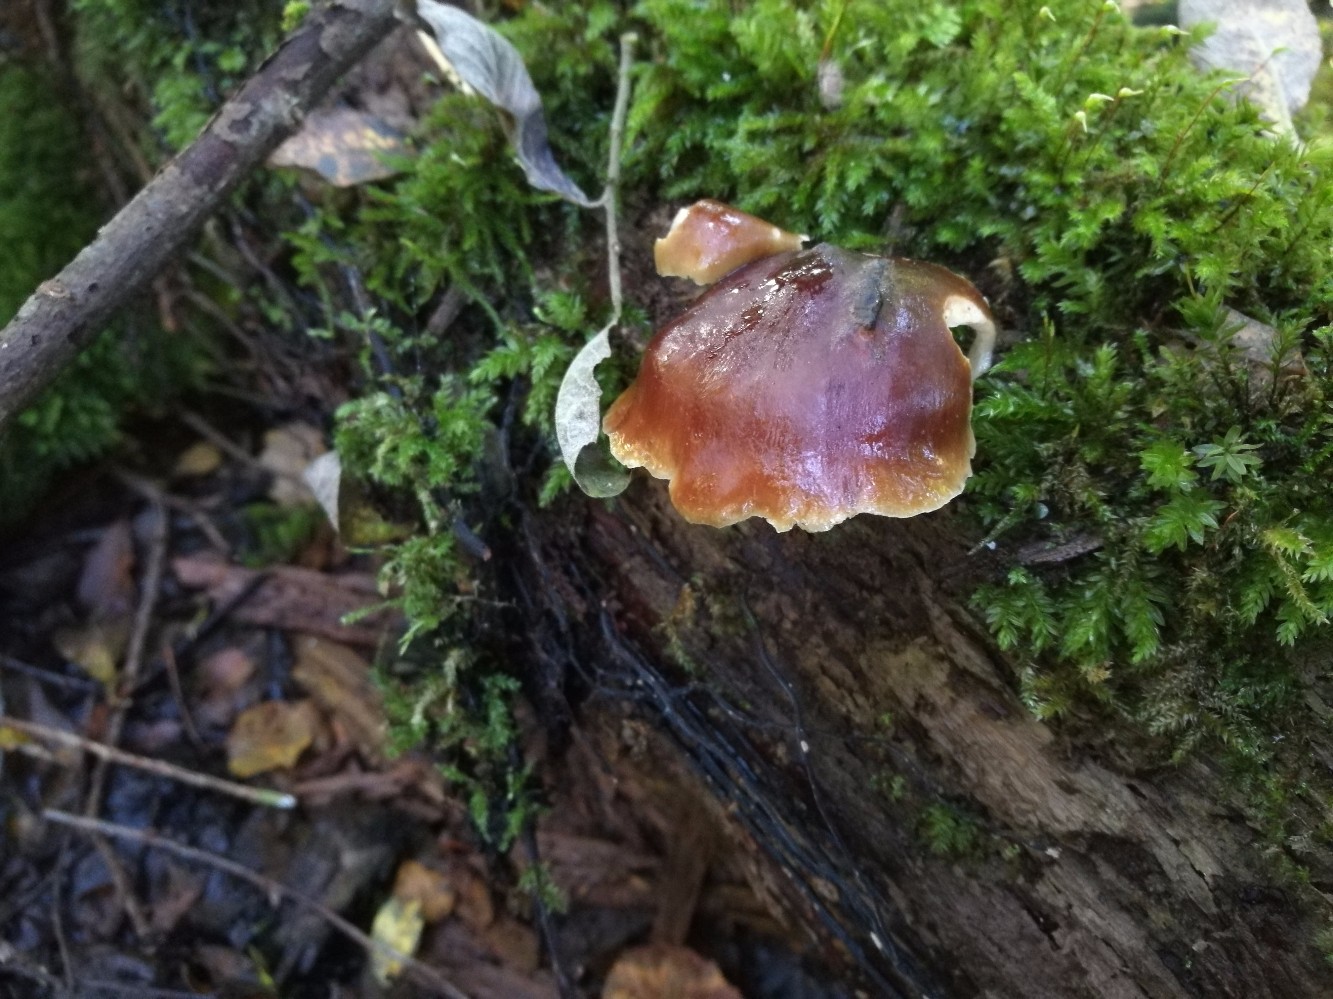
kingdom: Fungi
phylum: Basidiomycota
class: Agaricomycetes
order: Polyporales
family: Polyporaceae
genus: Picipes
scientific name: Picipes badius
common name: kastaniebrun stilkporesvamp
